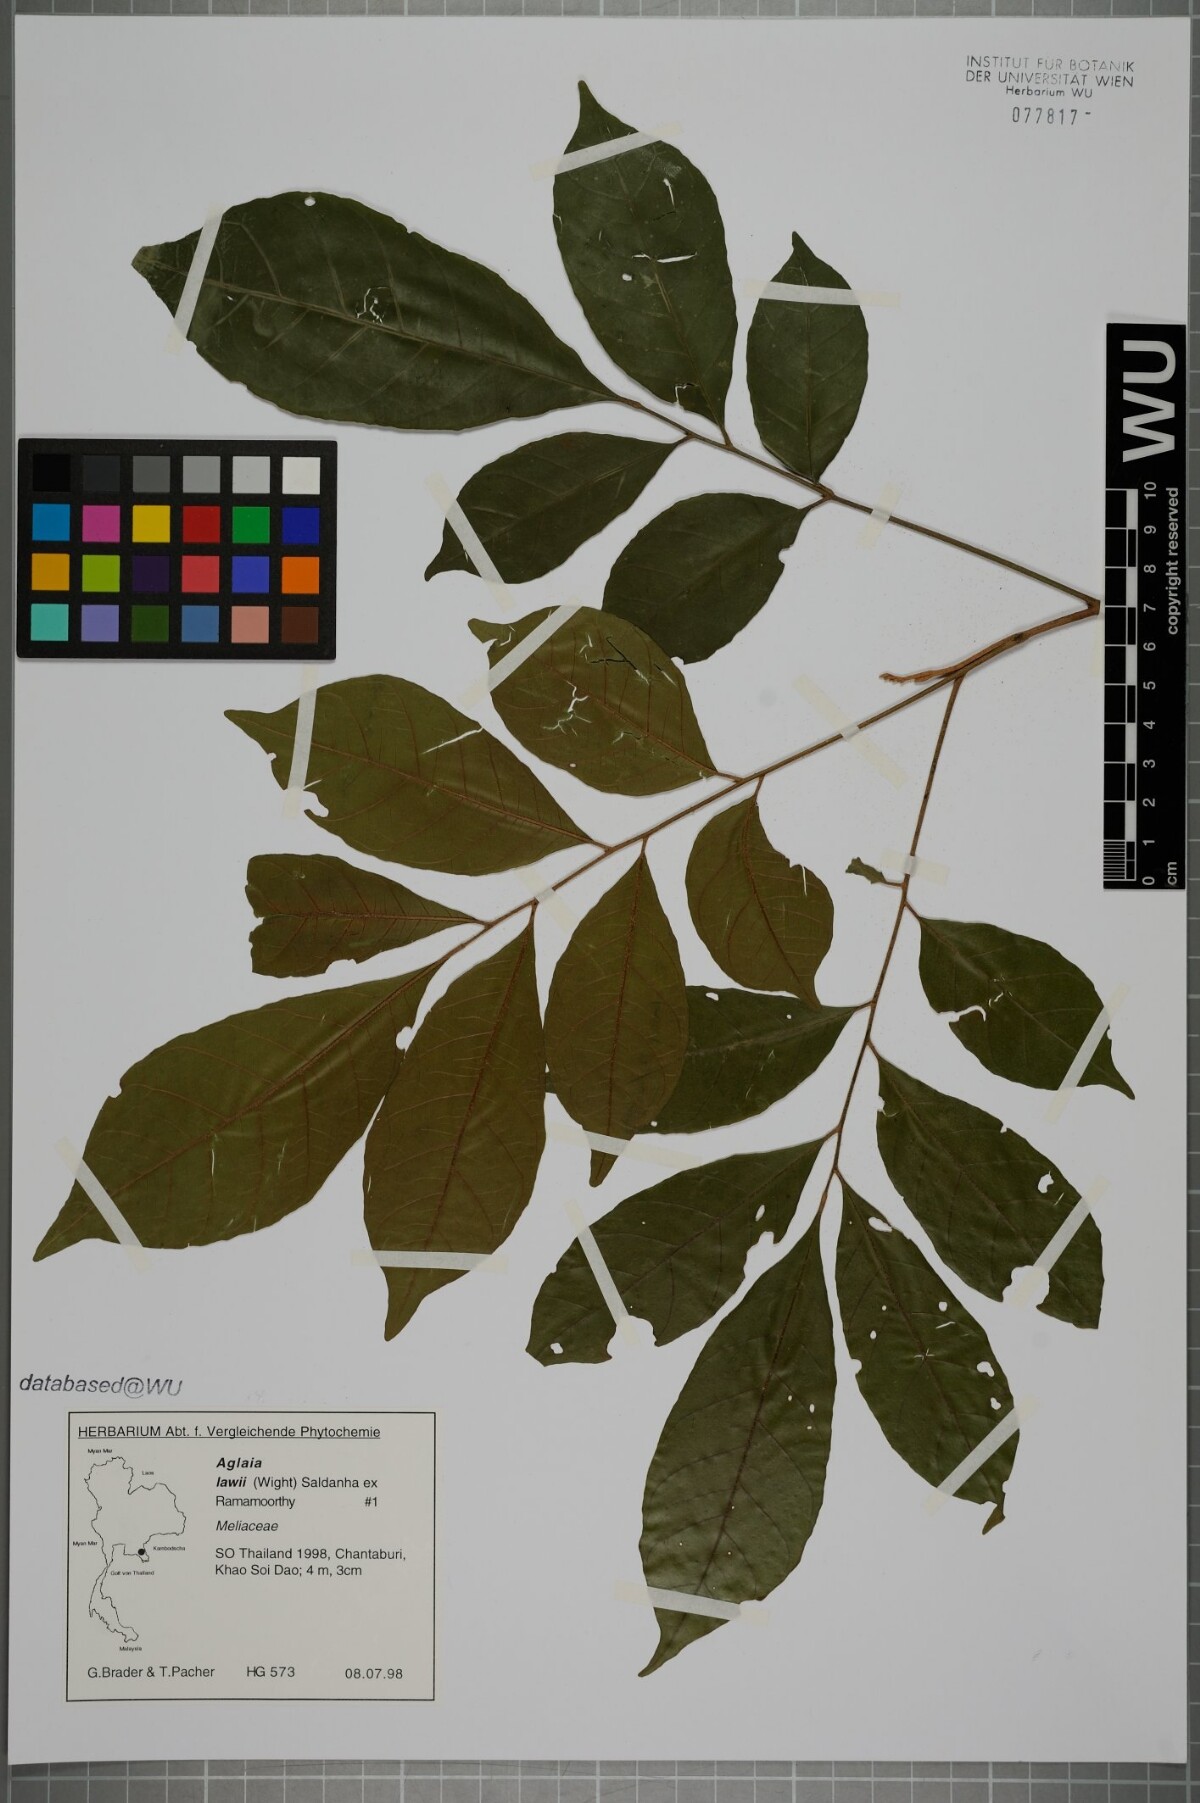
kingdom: Plantae
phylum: Tracheophyta
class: Magnoliopsida
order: Sapindales
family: Meliaceae
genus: Aglaia
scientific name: Aglaia lawii
